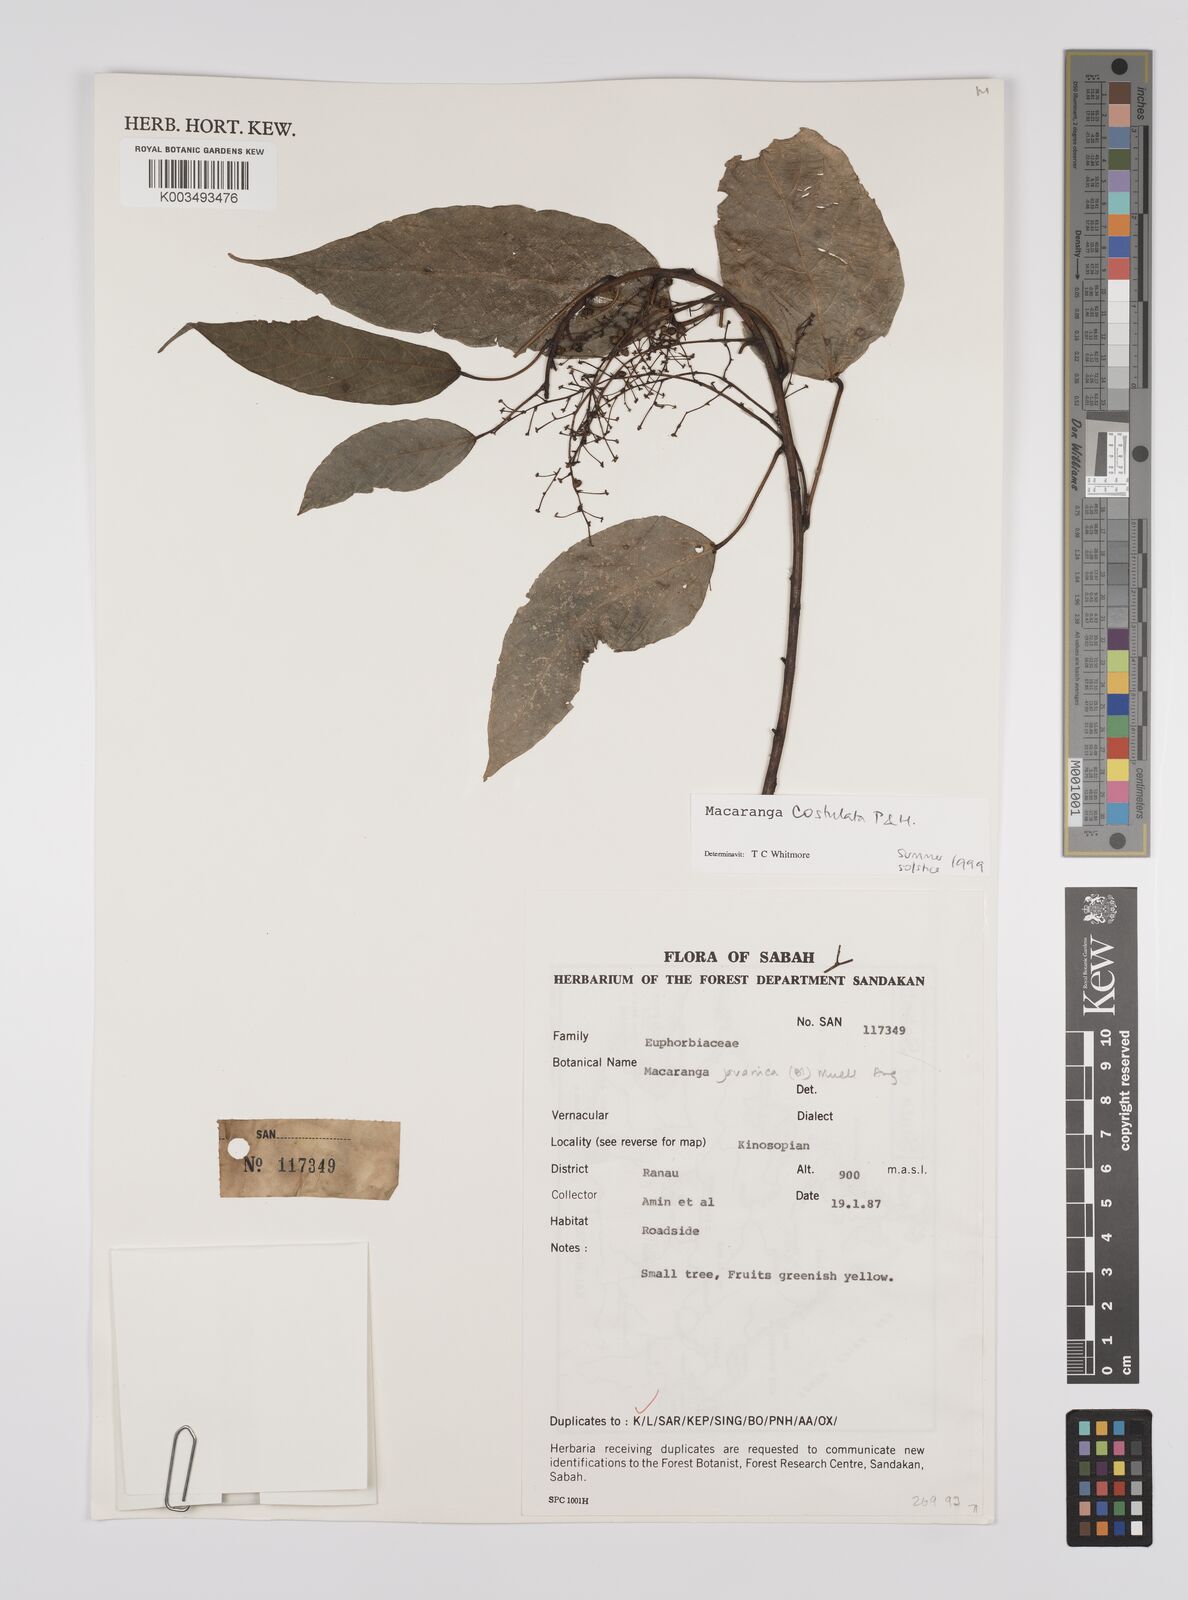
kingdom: Plantae
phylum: Tracheophyta
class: Magnoliopsida
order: Malpighiales
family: Euphorbiaceae
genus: Macaranga
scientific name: Macaranga costulata
